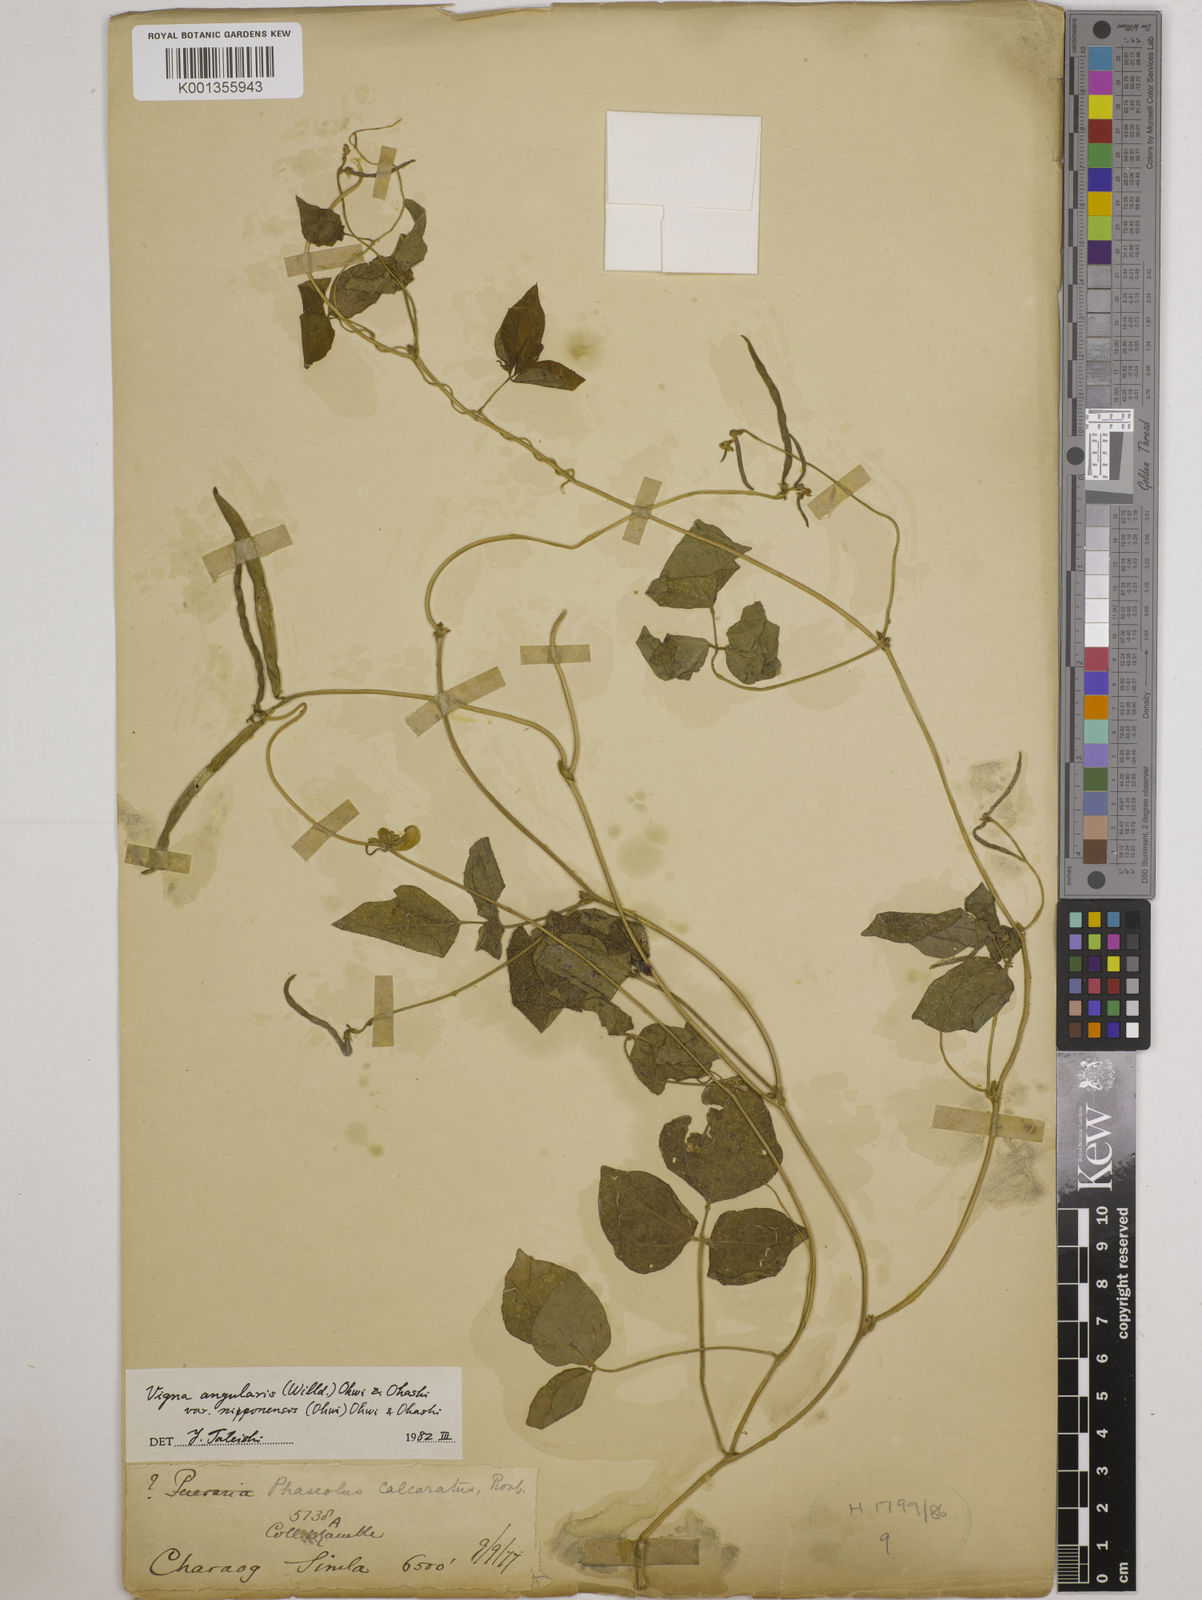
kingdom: Plantae
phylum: Tracheophyta
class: Magnoliopsida
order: Fabales
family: Fabaceae
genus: Vigna
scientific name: Vigna
